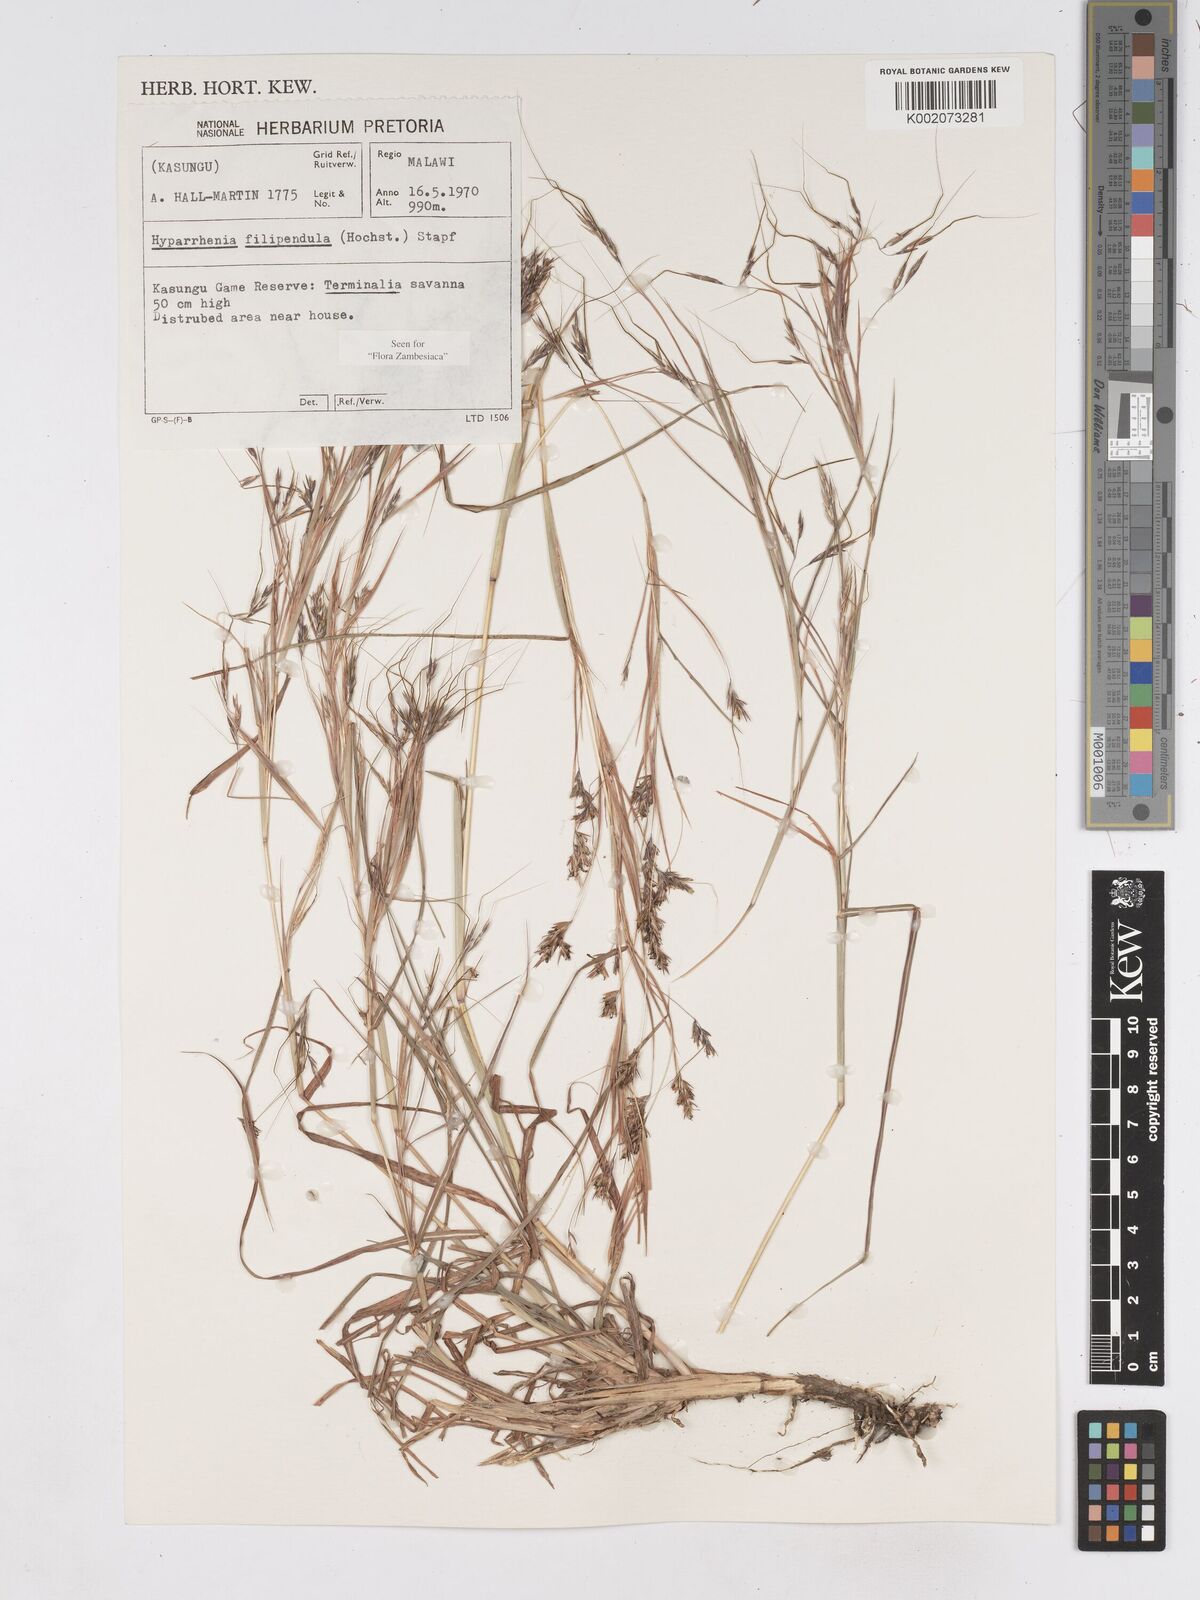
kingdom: Plantae
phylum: Tracheophyta
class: Liliopsida
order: Poales
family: Poaceae
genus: Hyparrhenia
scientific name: Hyparrhenia filipendula
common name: Tambookie grass
